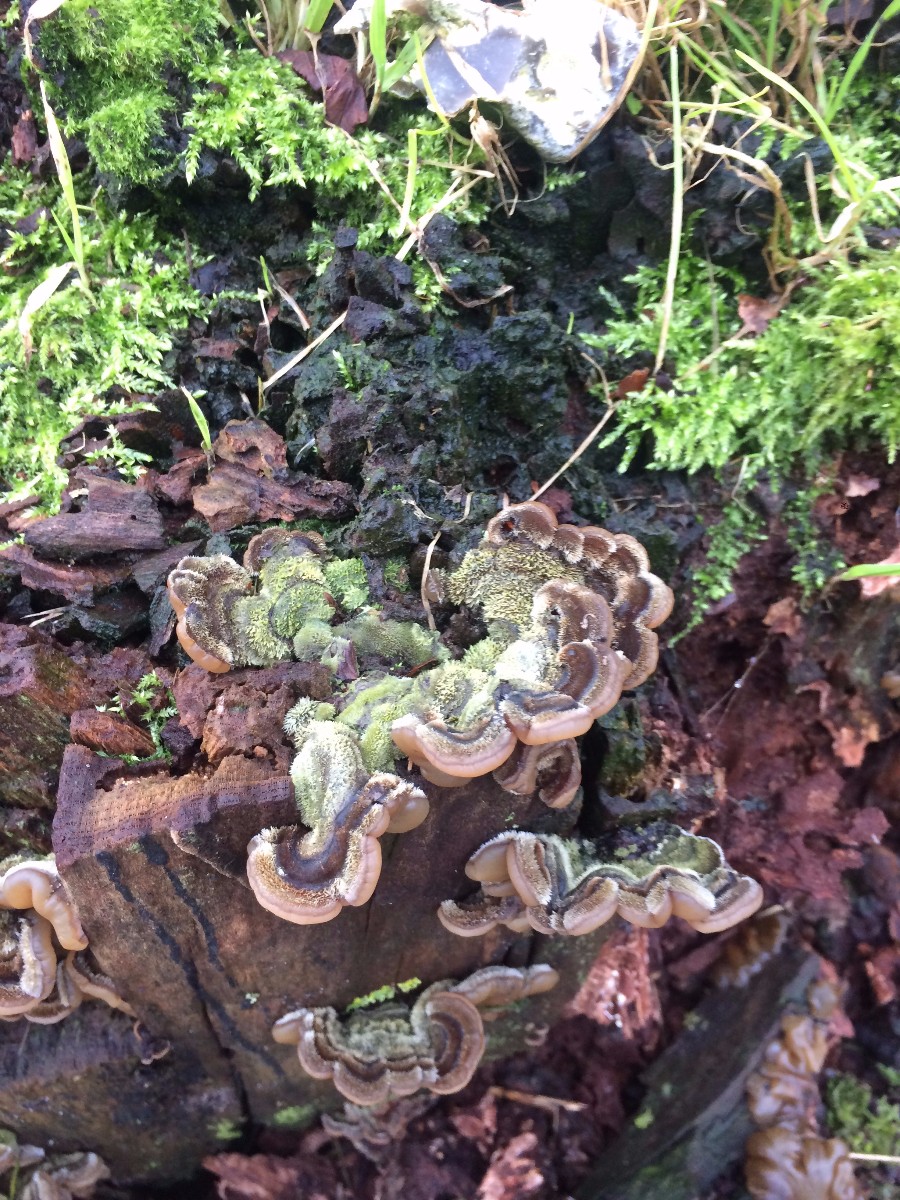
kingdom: Fungi
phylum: Basidiomycota
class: Agaricomycetes
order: Auriculariales
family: Auriculariaceae
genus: Auricularia
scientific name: Auricularia mesenterica
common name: håret judasøre
